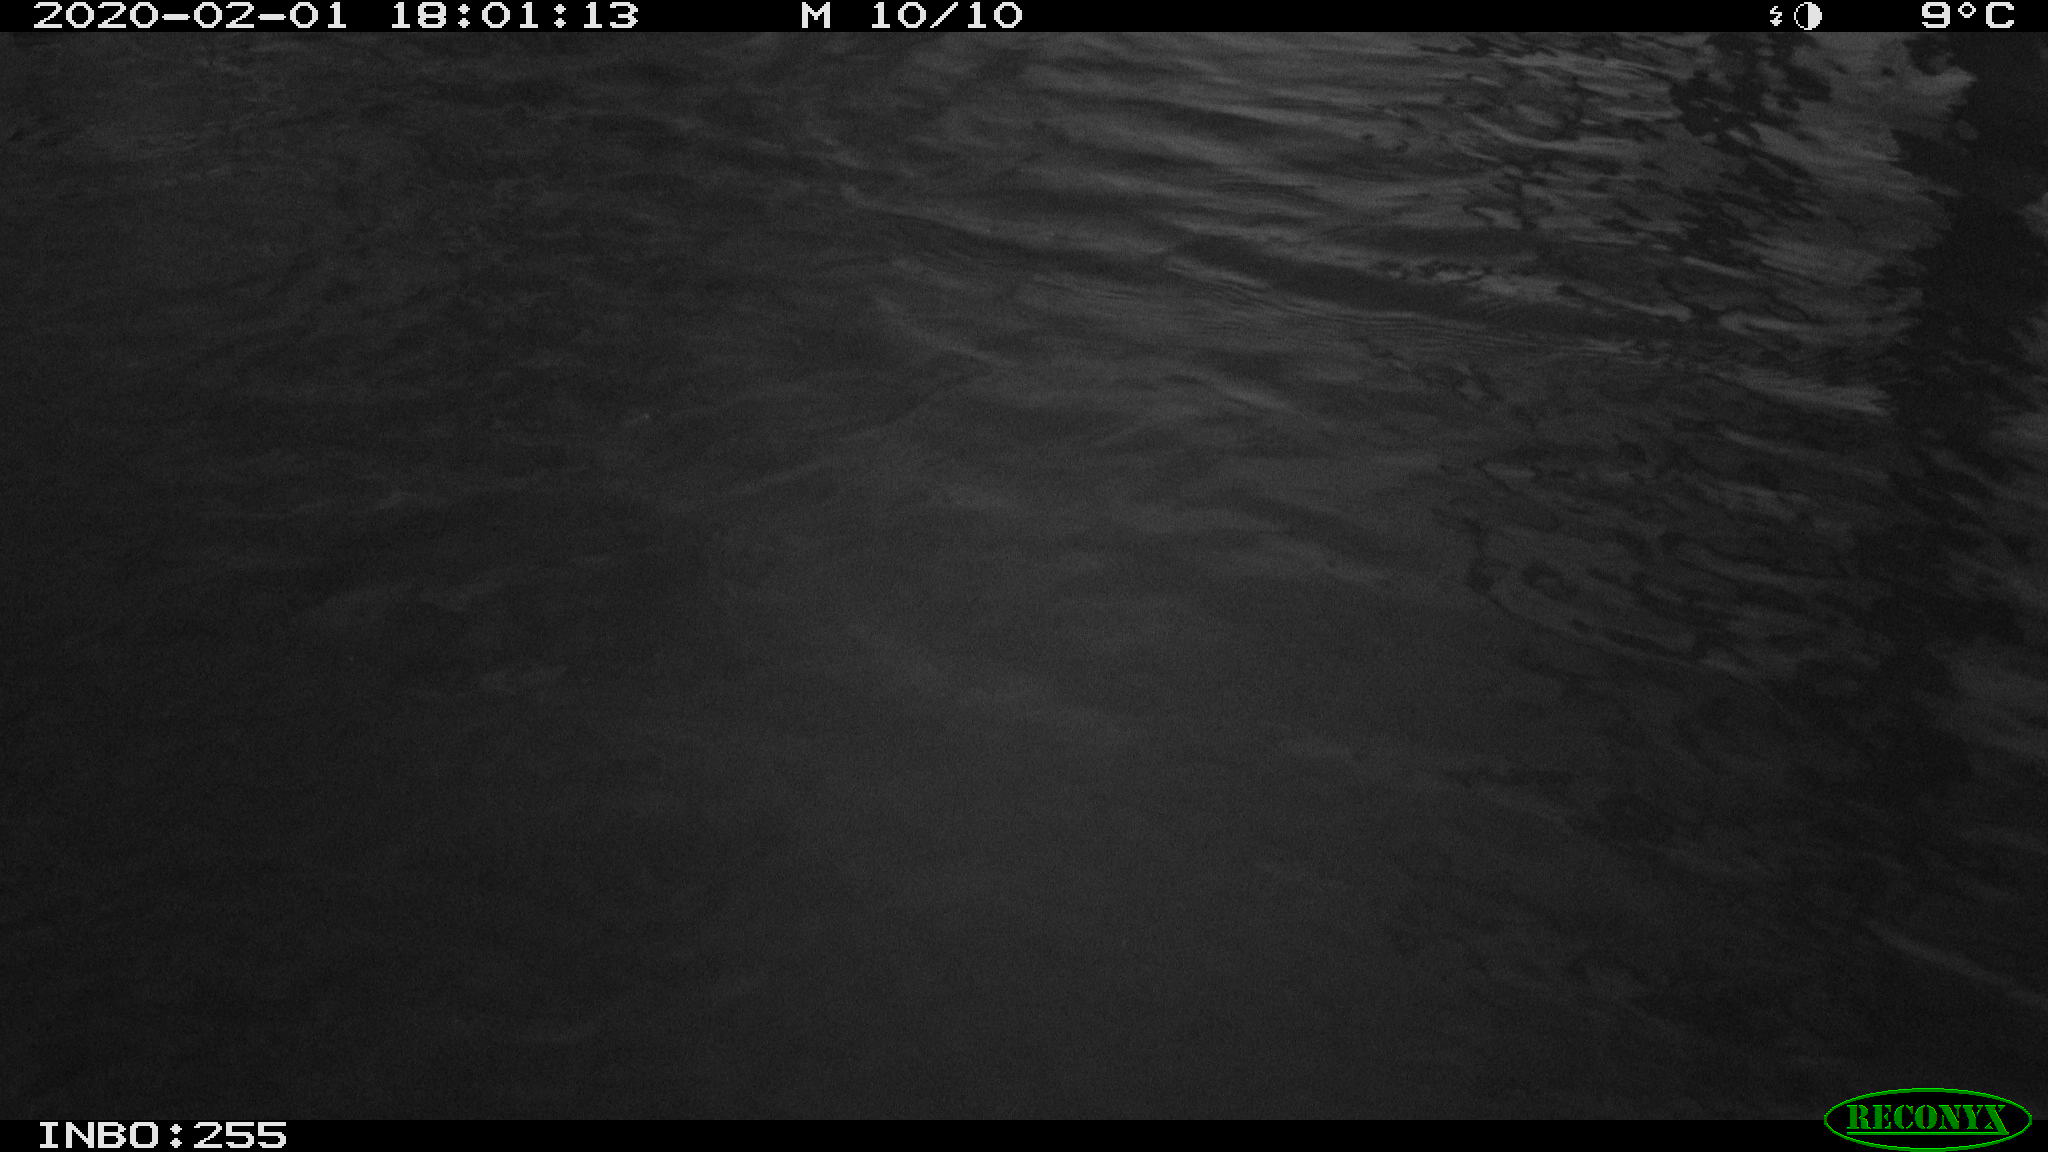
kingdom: Animalia
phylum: Chordata
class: Aves
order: Gruiformes
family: Rallidae
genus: Gallinula
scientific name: Gallinula chloropus
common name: Common moorhen
